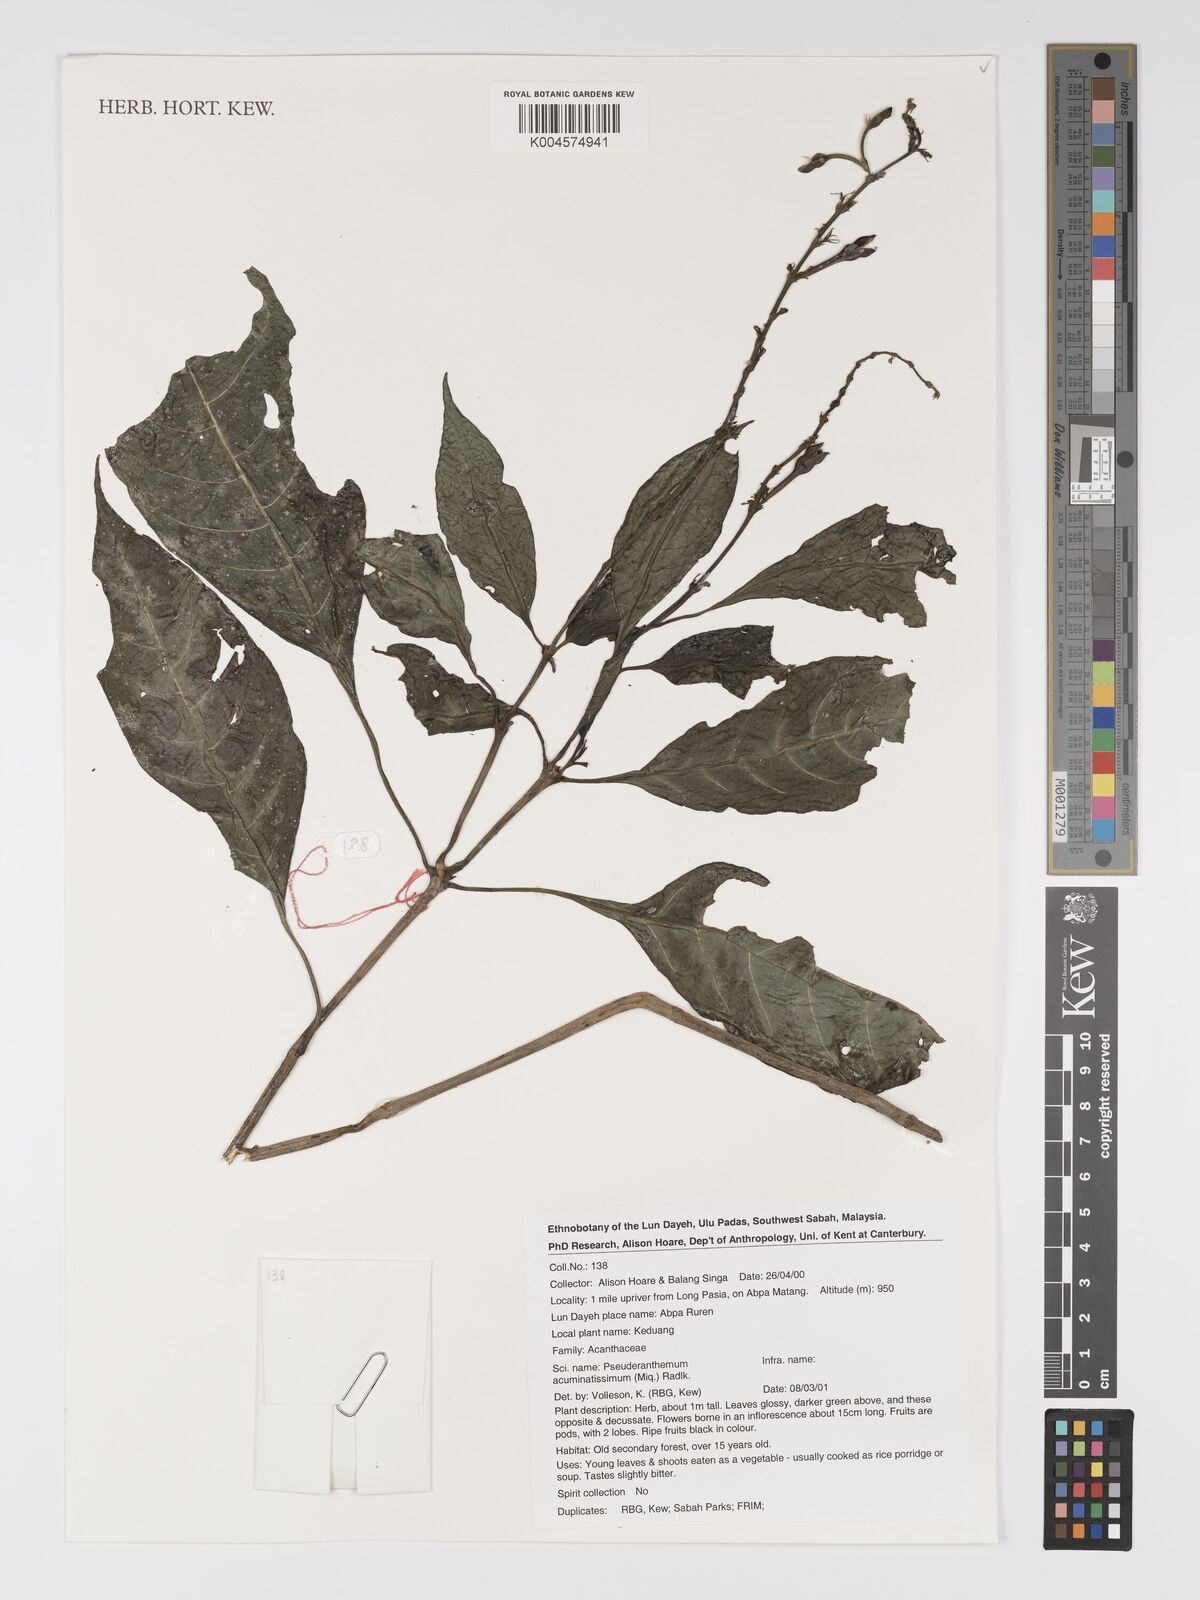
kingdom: Plantae
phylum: Tracheophyta
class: Magnoliopsida
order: Lamiales
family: Acanthaceae
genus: Pseuderanthemum
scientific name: Pseuderanthemum acuminatissimum
